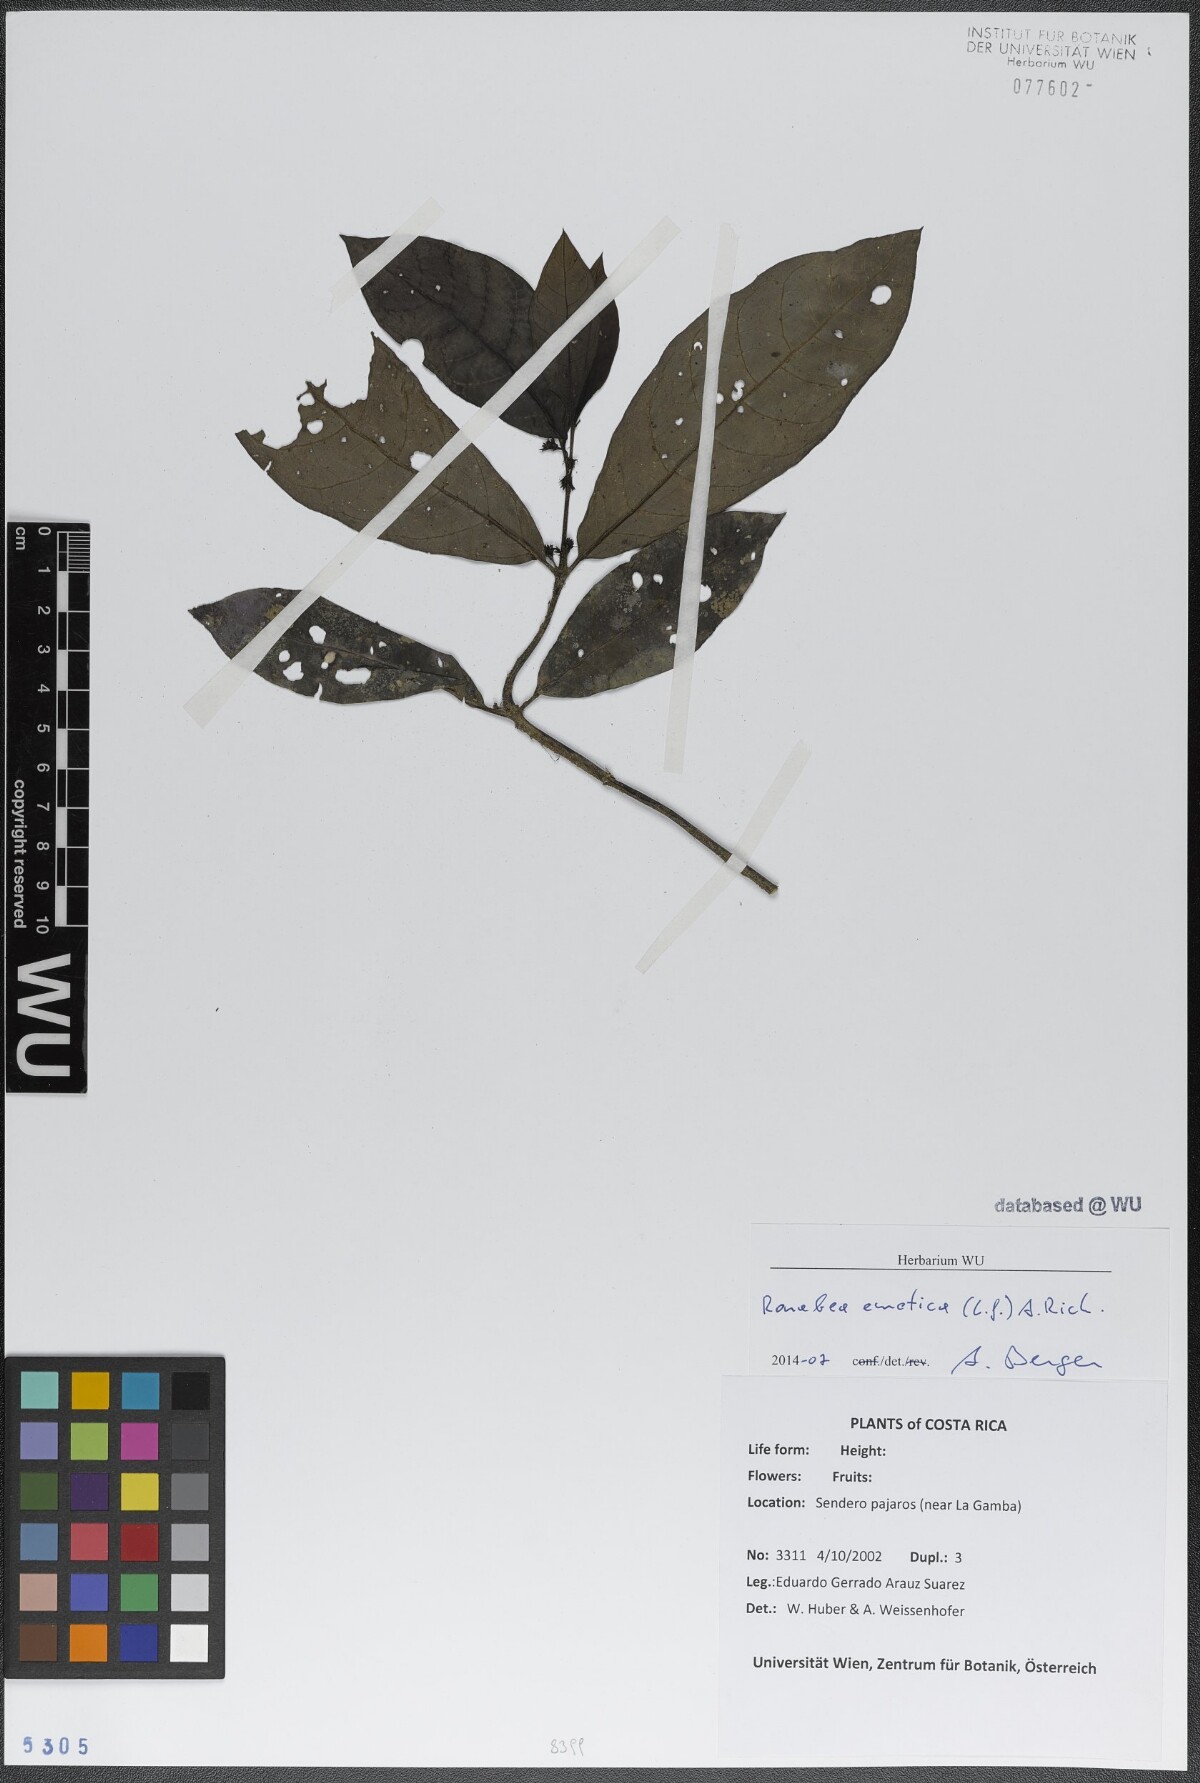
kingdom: Plantae
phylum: Tracheophyta
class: Magnoliopsida
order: Gentianales
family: Rubiaceae
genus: Ronabea
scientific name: Ronabea emetica
